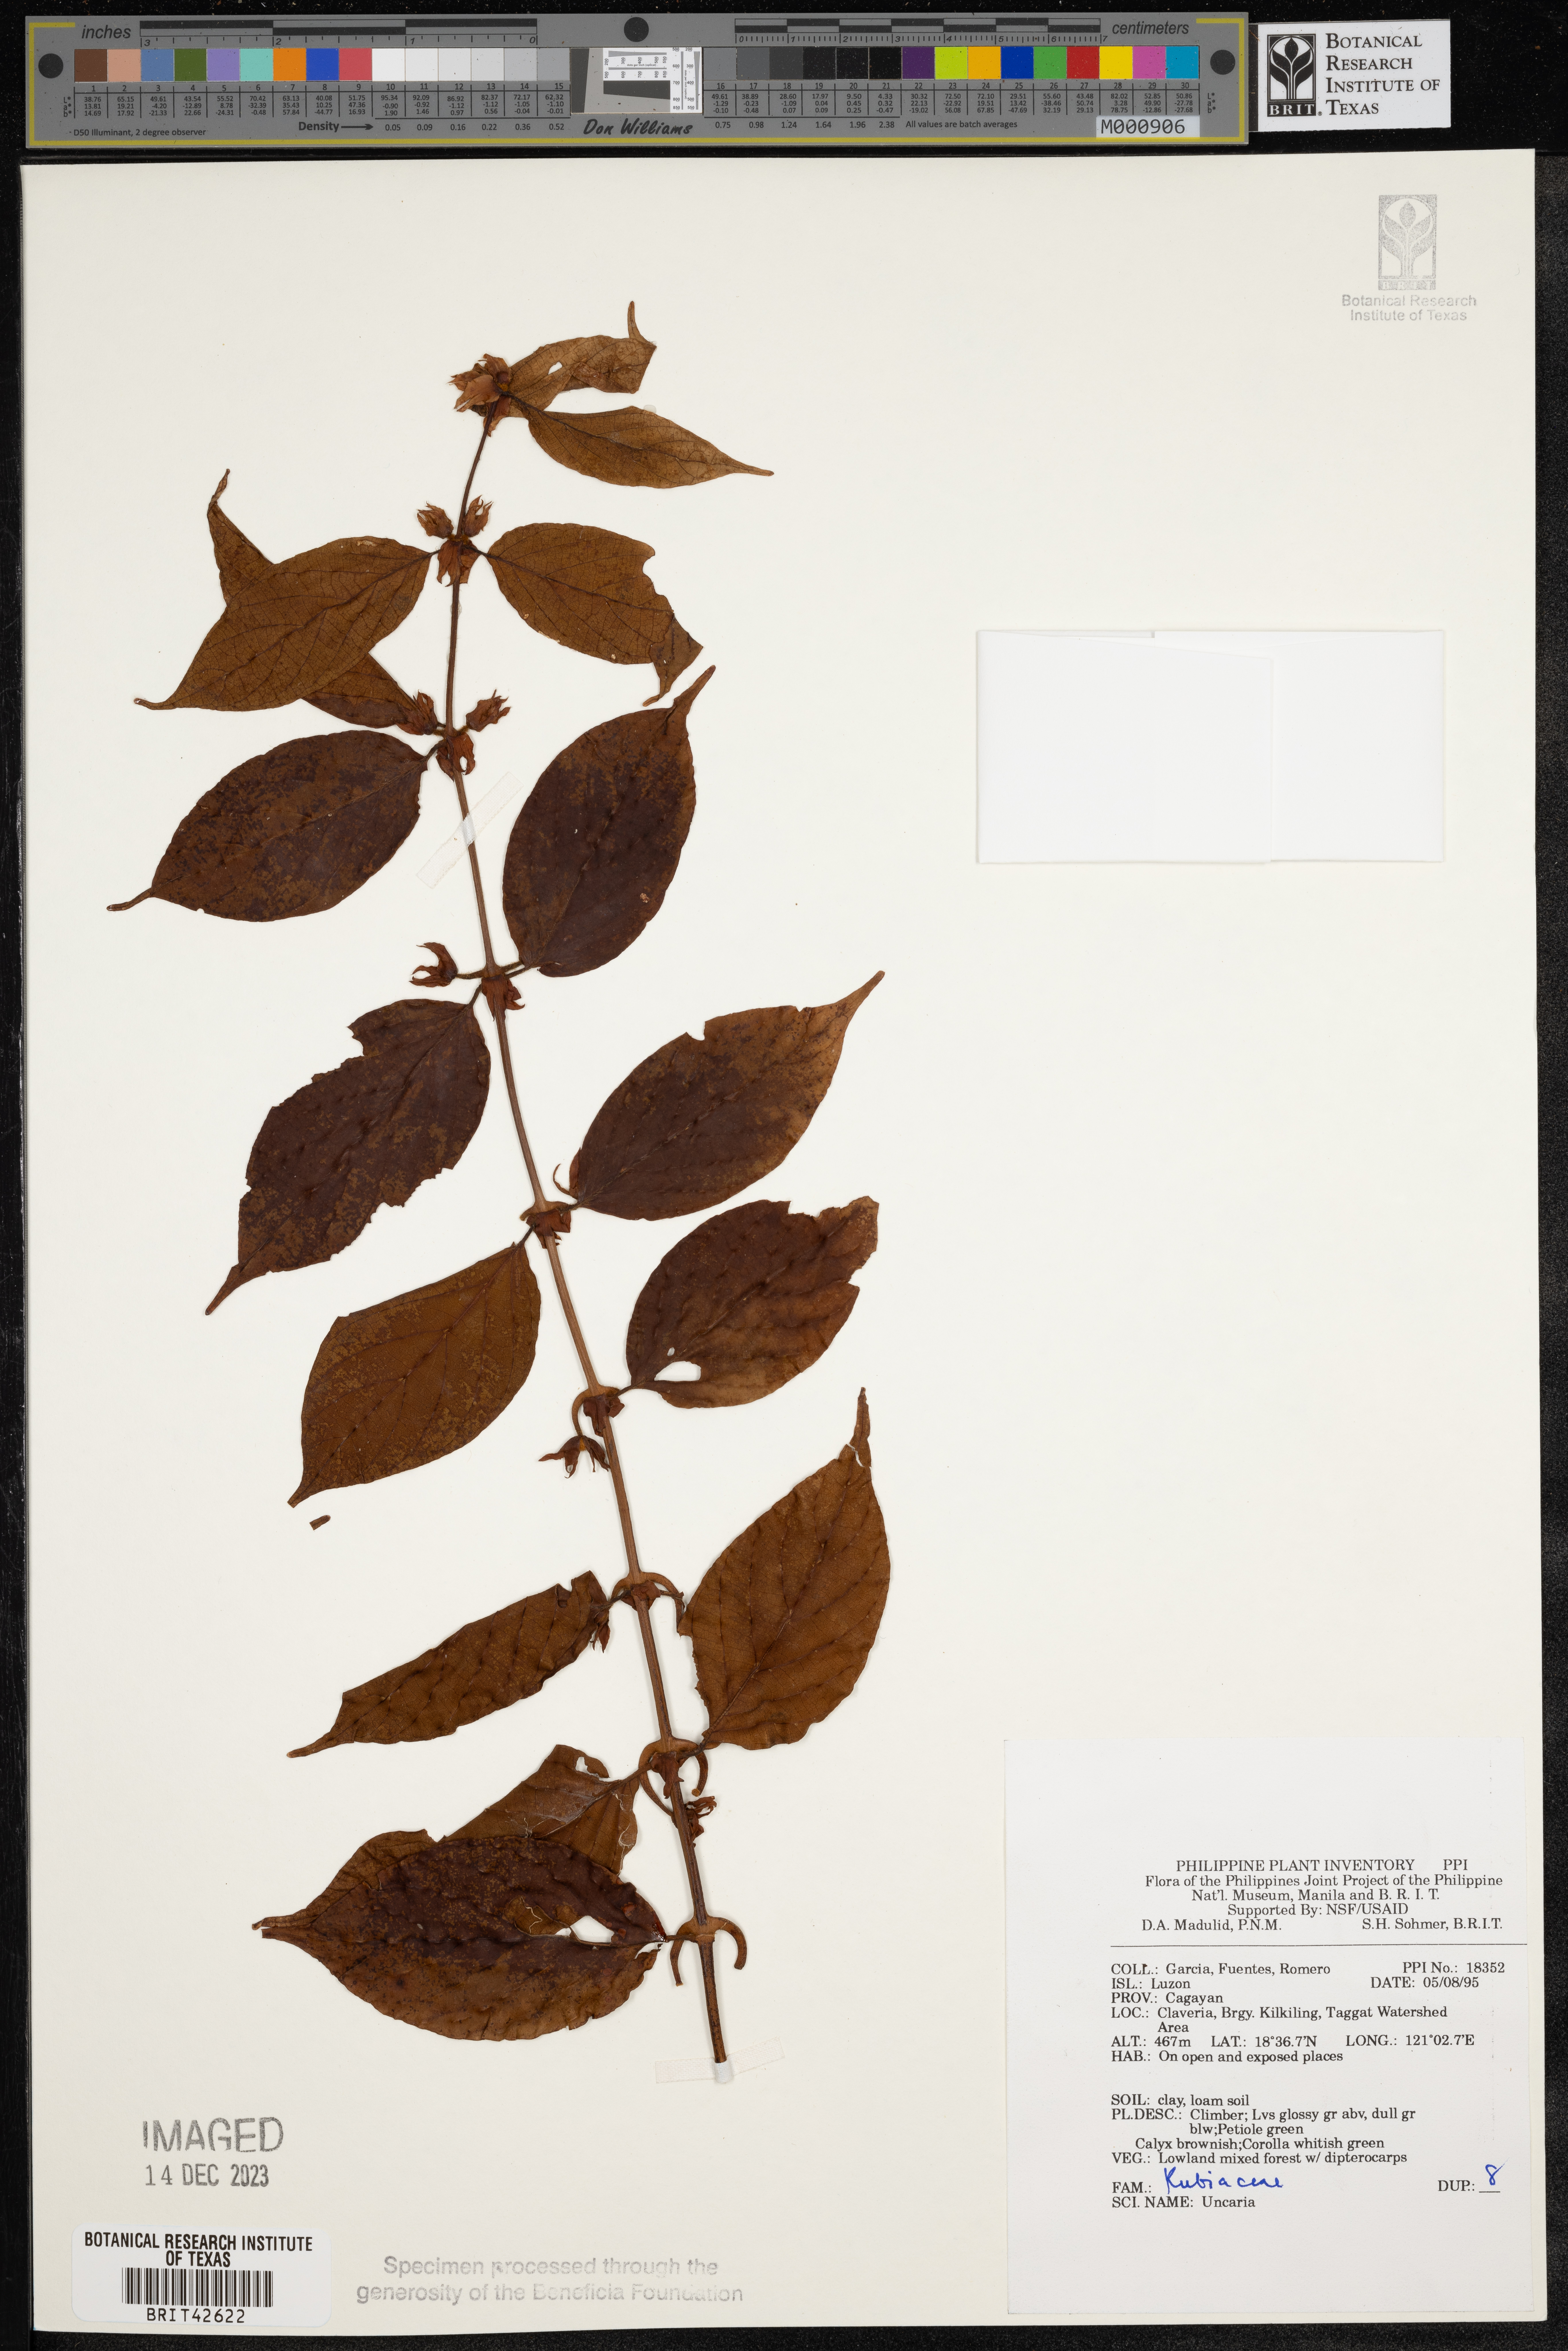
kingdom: Plantae
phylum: Tracheophyta
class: Magnoliopsida
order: Gentianales
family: Rubiaceae
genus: Uncaria
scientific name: Uncaria
